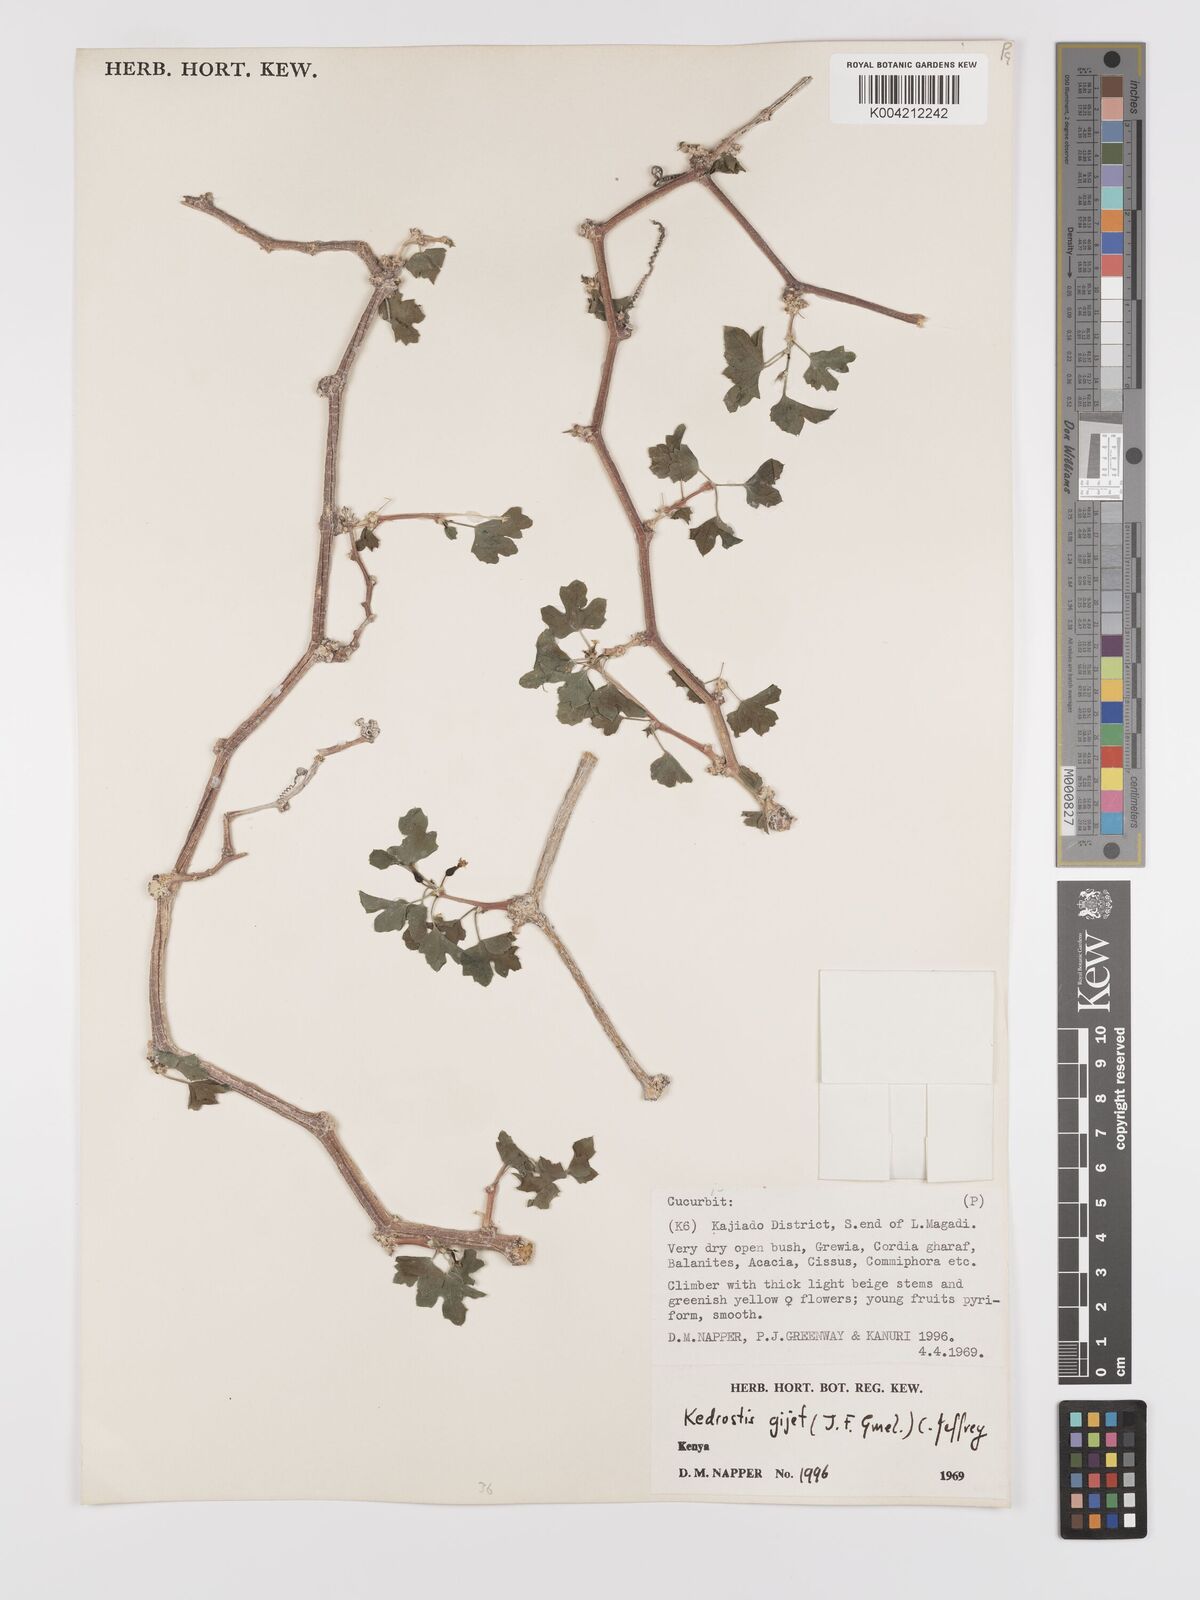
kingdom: Plantae
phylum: Tracheophyta
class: Magnoliopsida
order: Cucurbitales
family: Cucurbitaceae
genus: Kedrostis
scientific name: Kedrostis gijef
